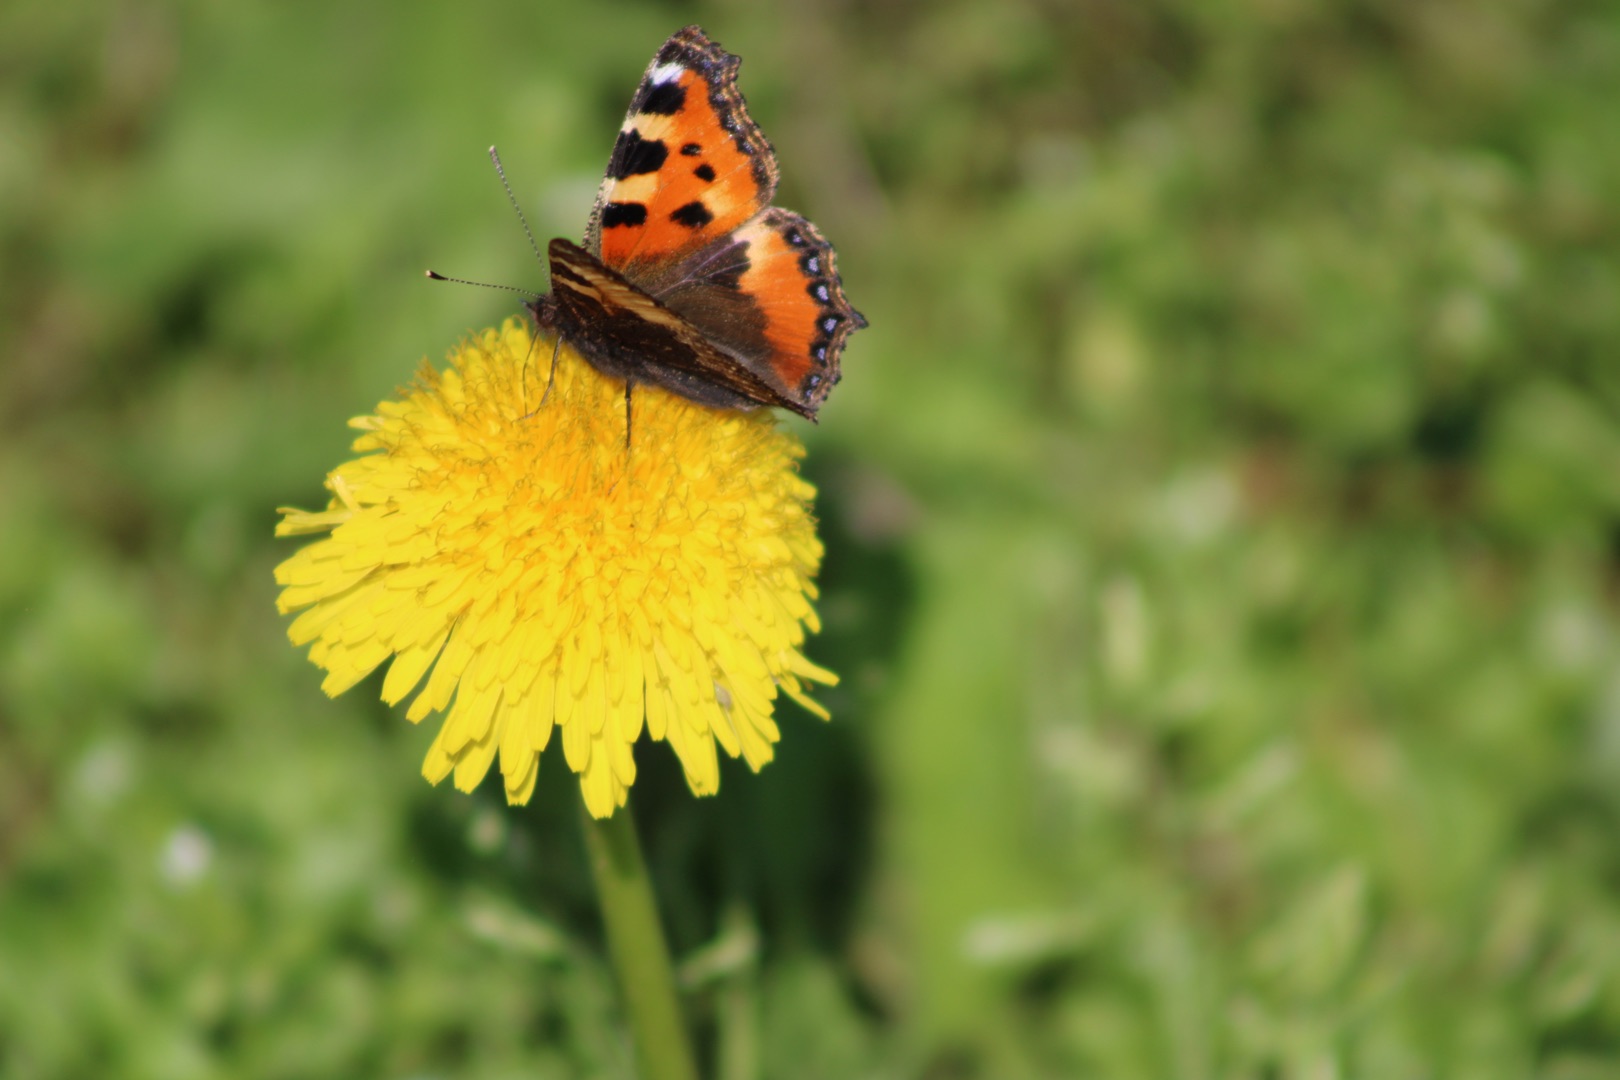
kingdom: Animalia
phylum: Arthropoda
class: Insecta
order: Lepidoptera
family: Nymphalidae
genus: Aglais
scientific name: Aglais urticae
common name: Nældens takvinge
